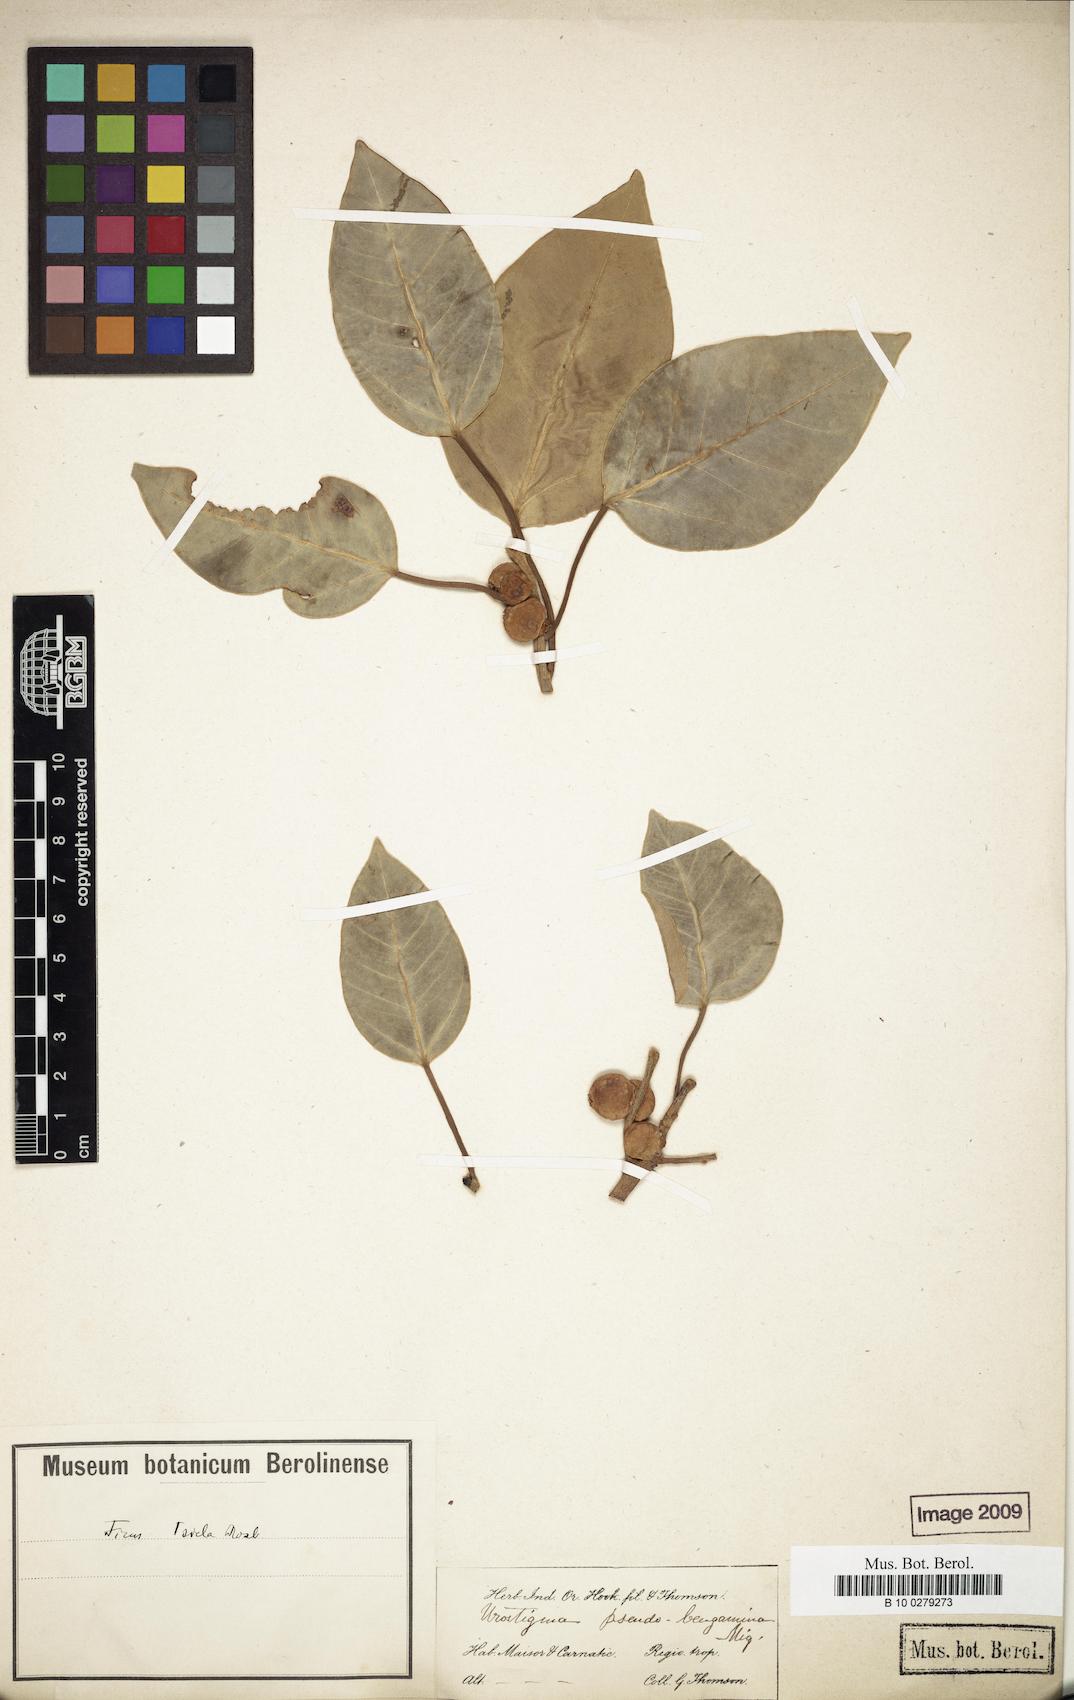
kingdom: Plantae
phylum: Tracheophyta
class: Magnoliopsida
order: Rosales
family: Moraceae
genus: Ficus
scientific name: Ficus amplissima
